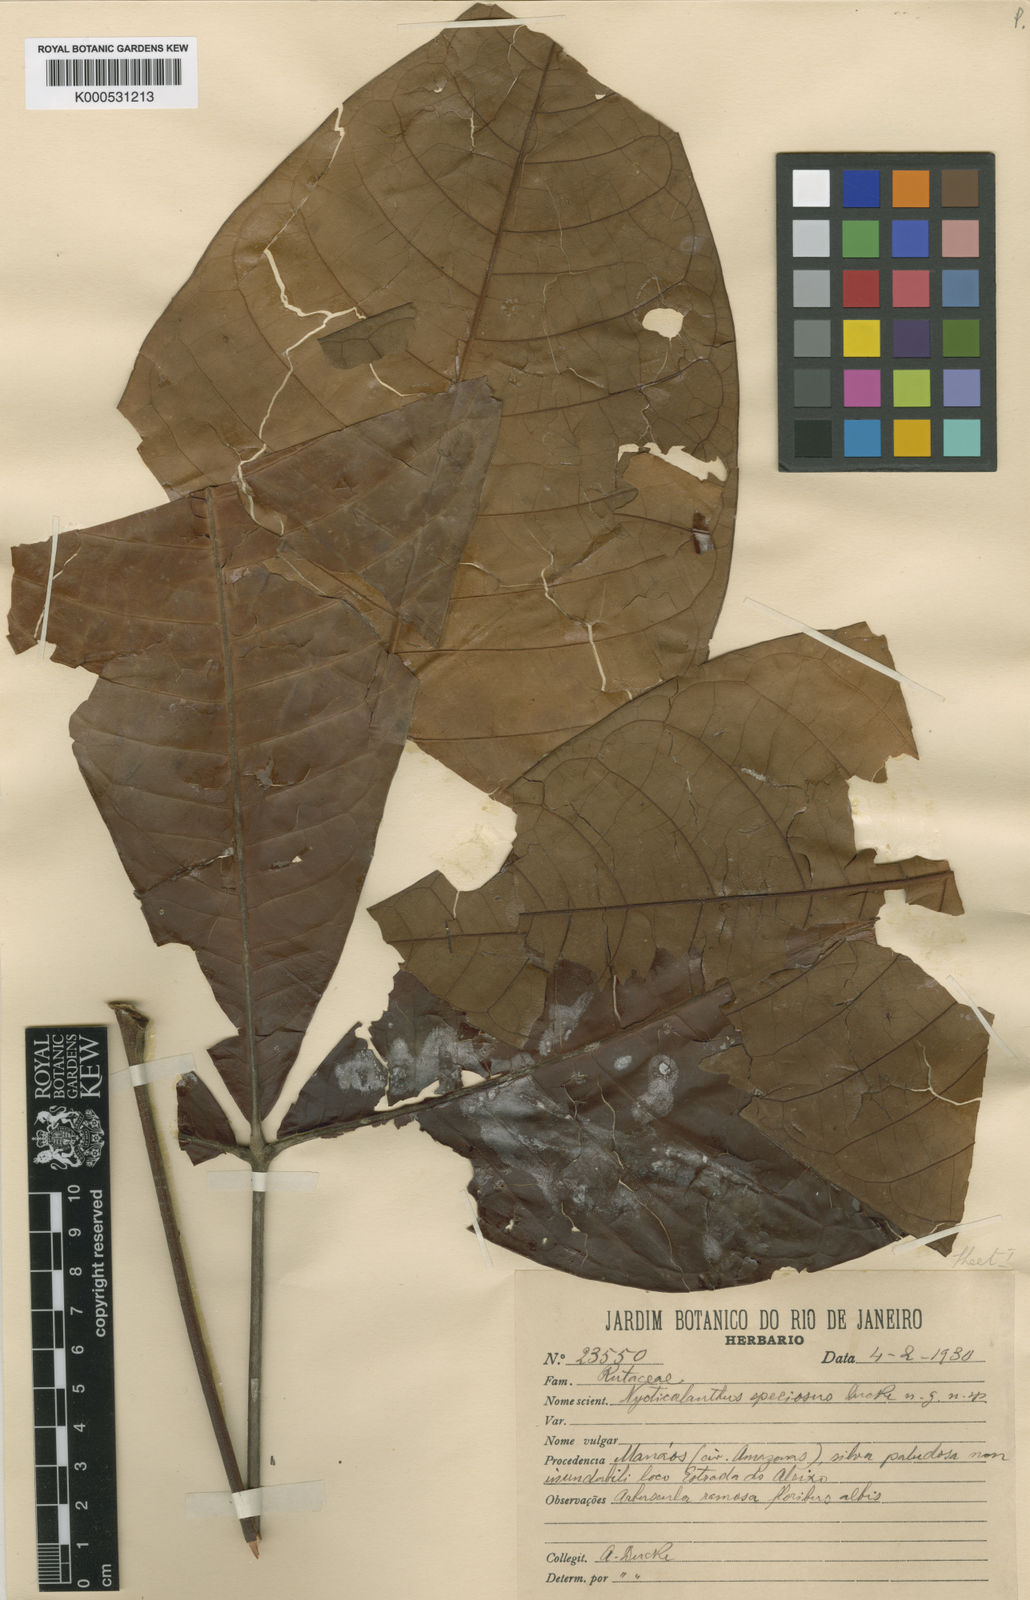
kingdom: Plantae
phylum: Tracheophyta
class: Magnoliopsida
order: Sapindales
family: Rutaceae
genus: Nycticalanthus
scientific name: Nycticalanthus speciosus
